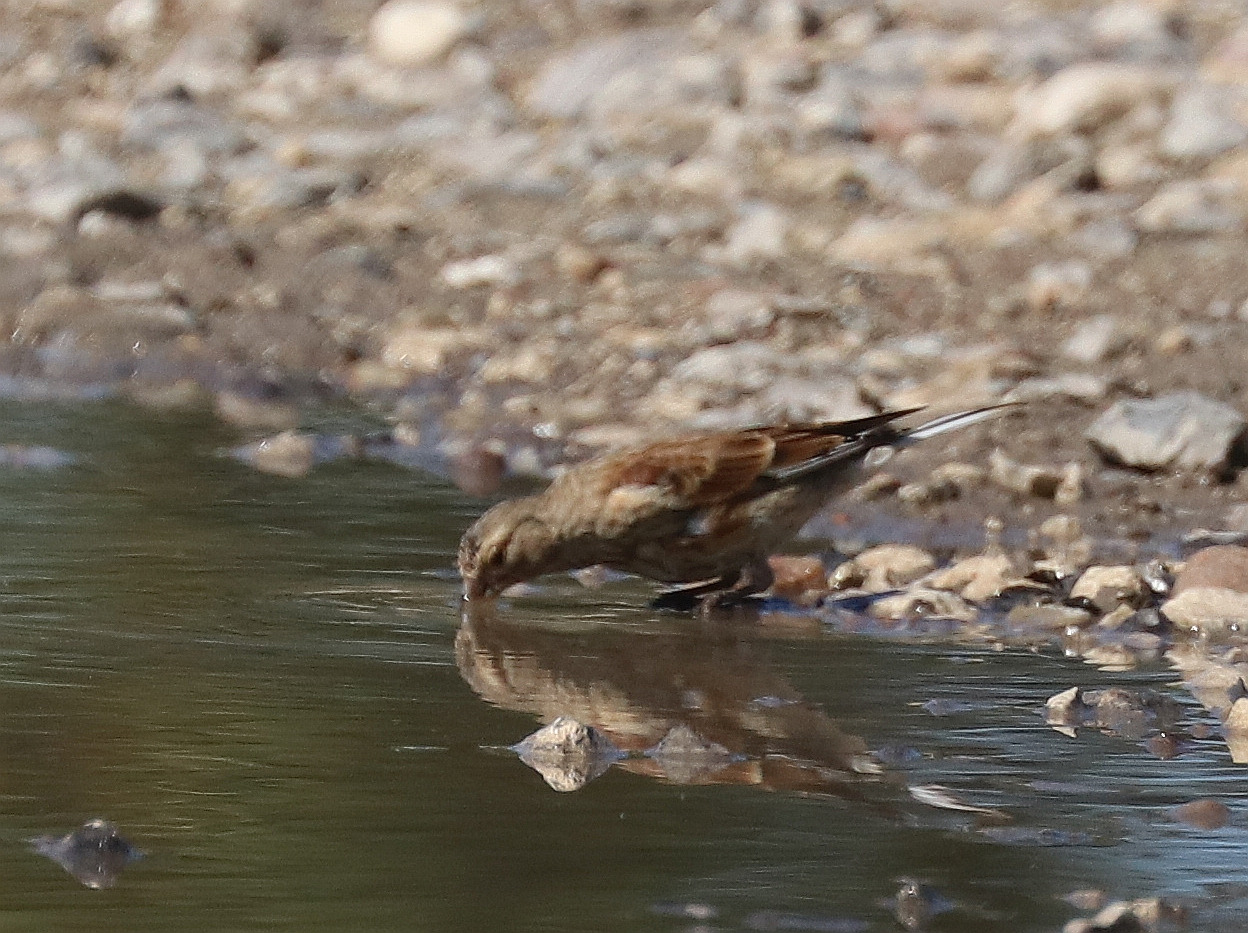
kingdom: Animalia
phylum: Chordata
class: Aves
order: Passeriformes
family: Fringillidae
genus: Linaria
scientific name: Linaria cannabina
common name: Tornirisk
